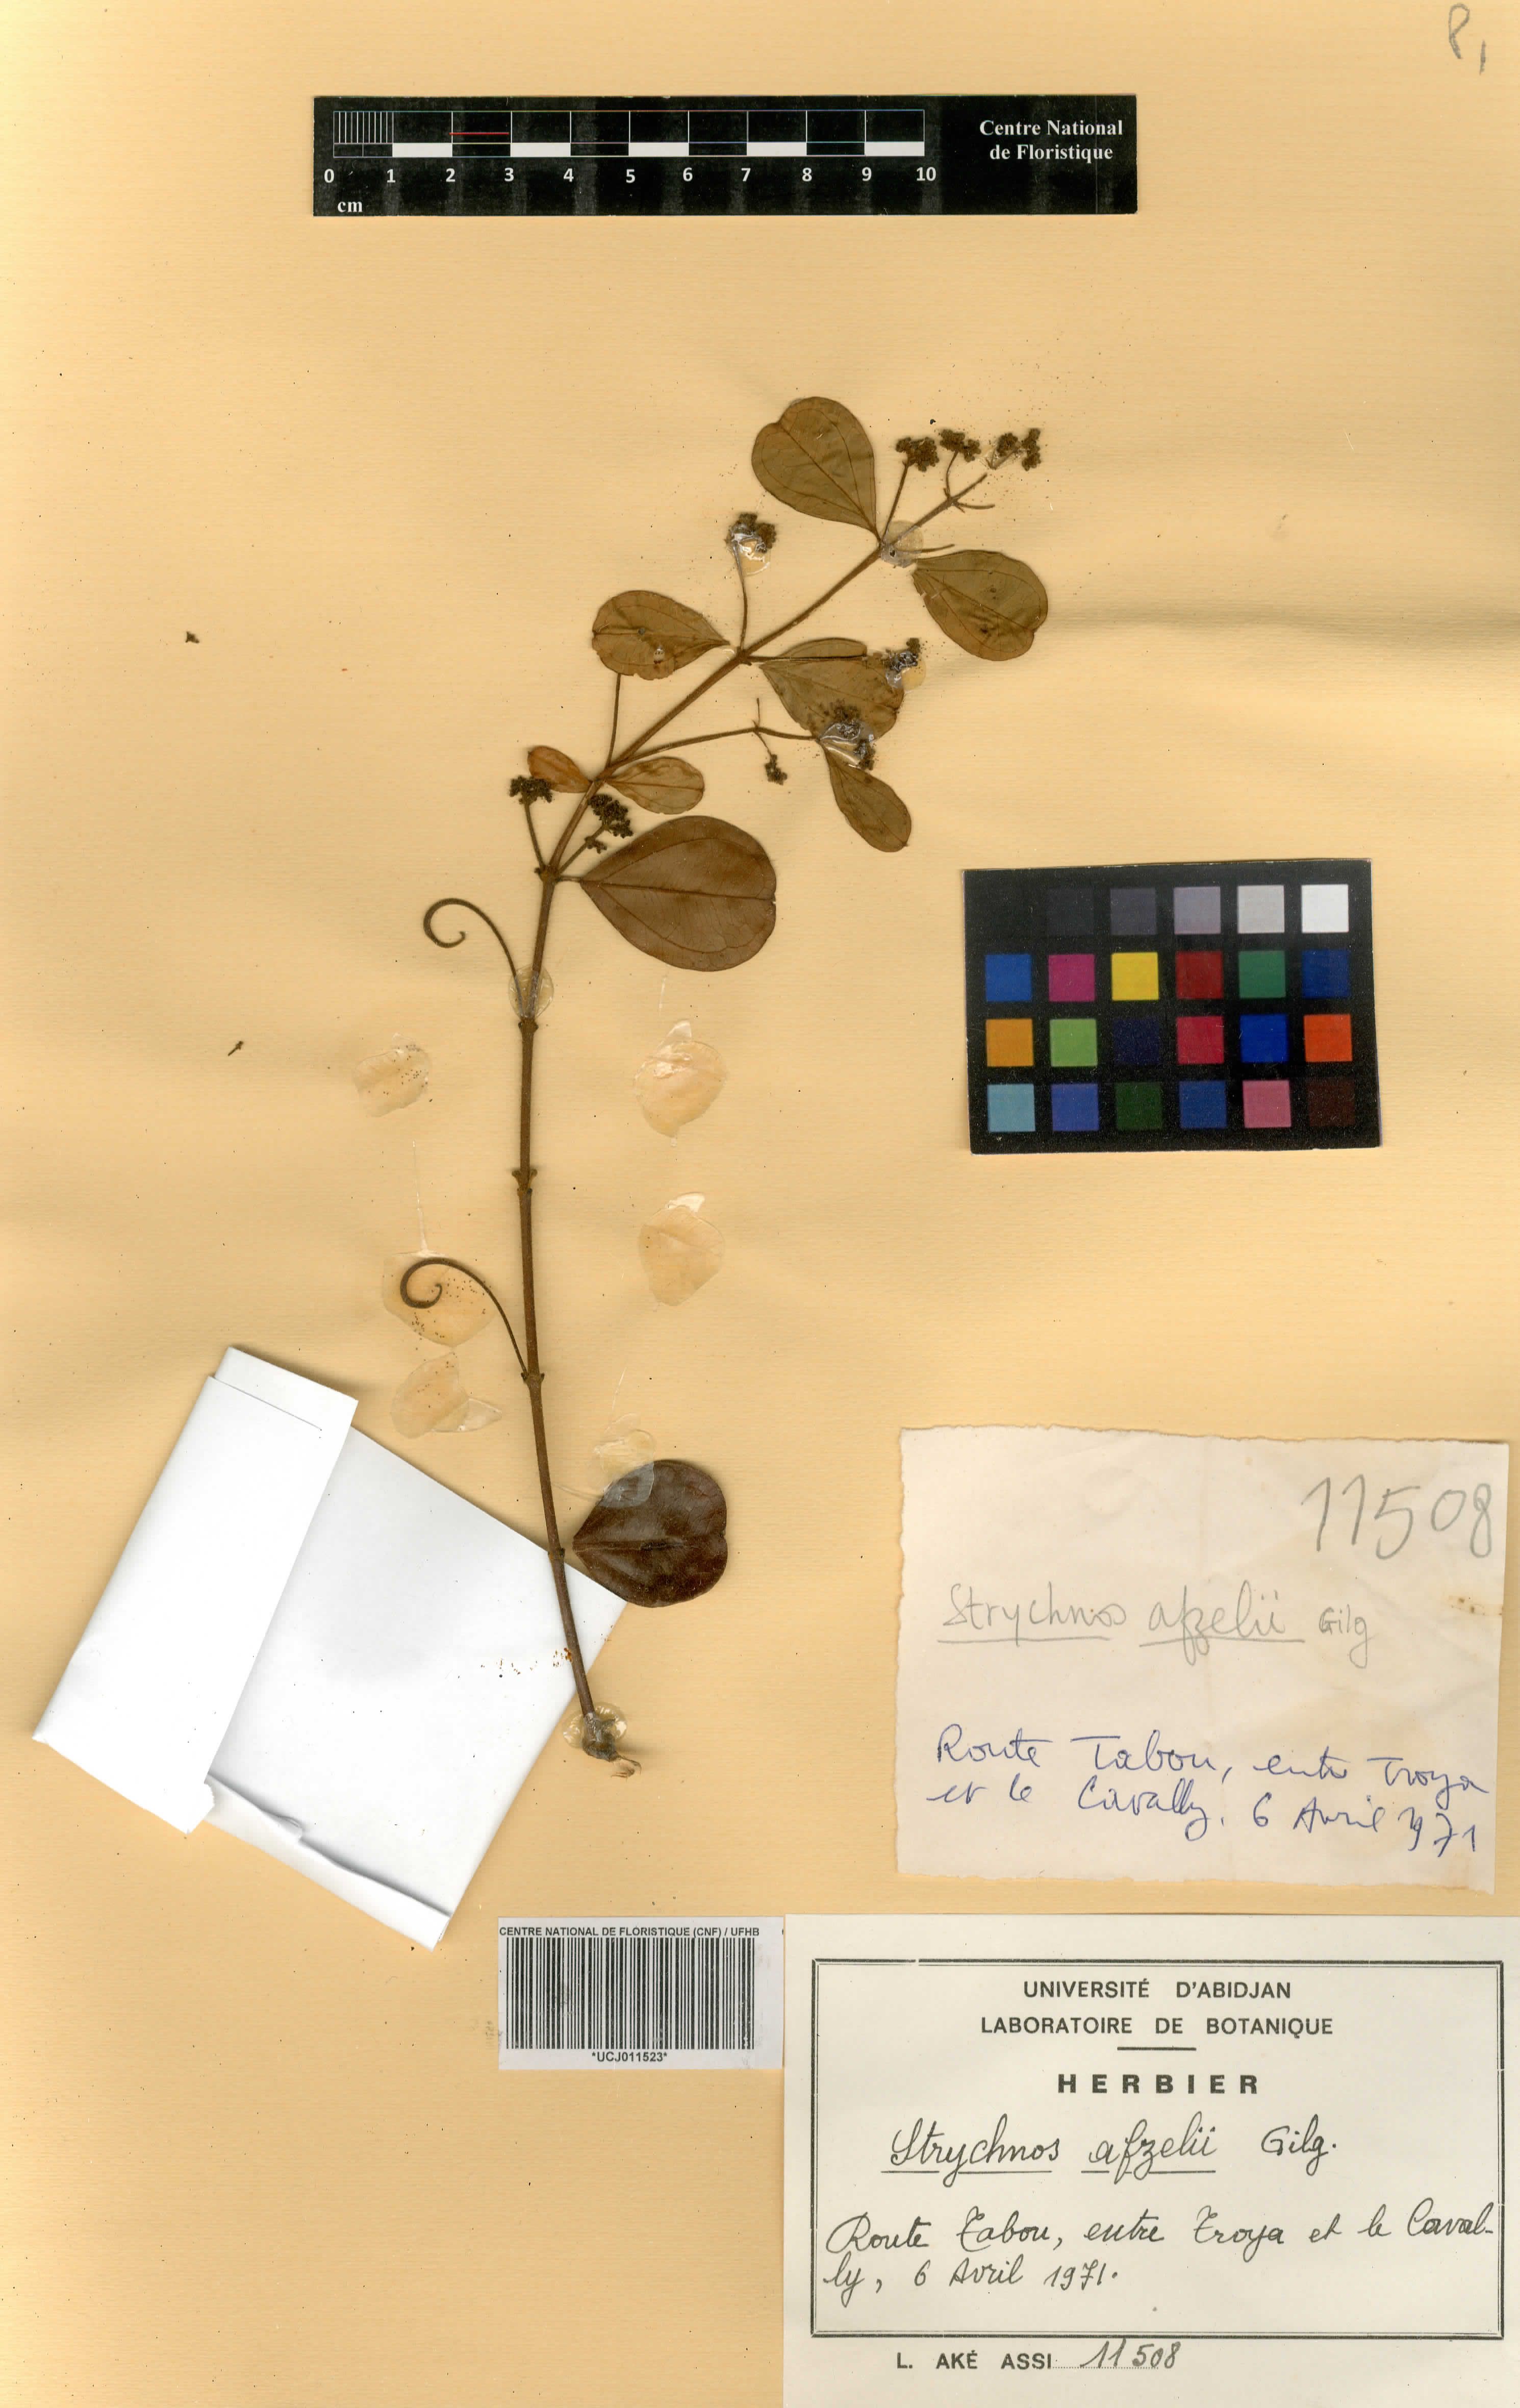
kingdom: Plantae
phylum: Tracheophyta
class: Magnoliopsida
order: Gentianales
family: Loganiaceae
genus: Strychnos
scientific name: Strychnos afzelii
